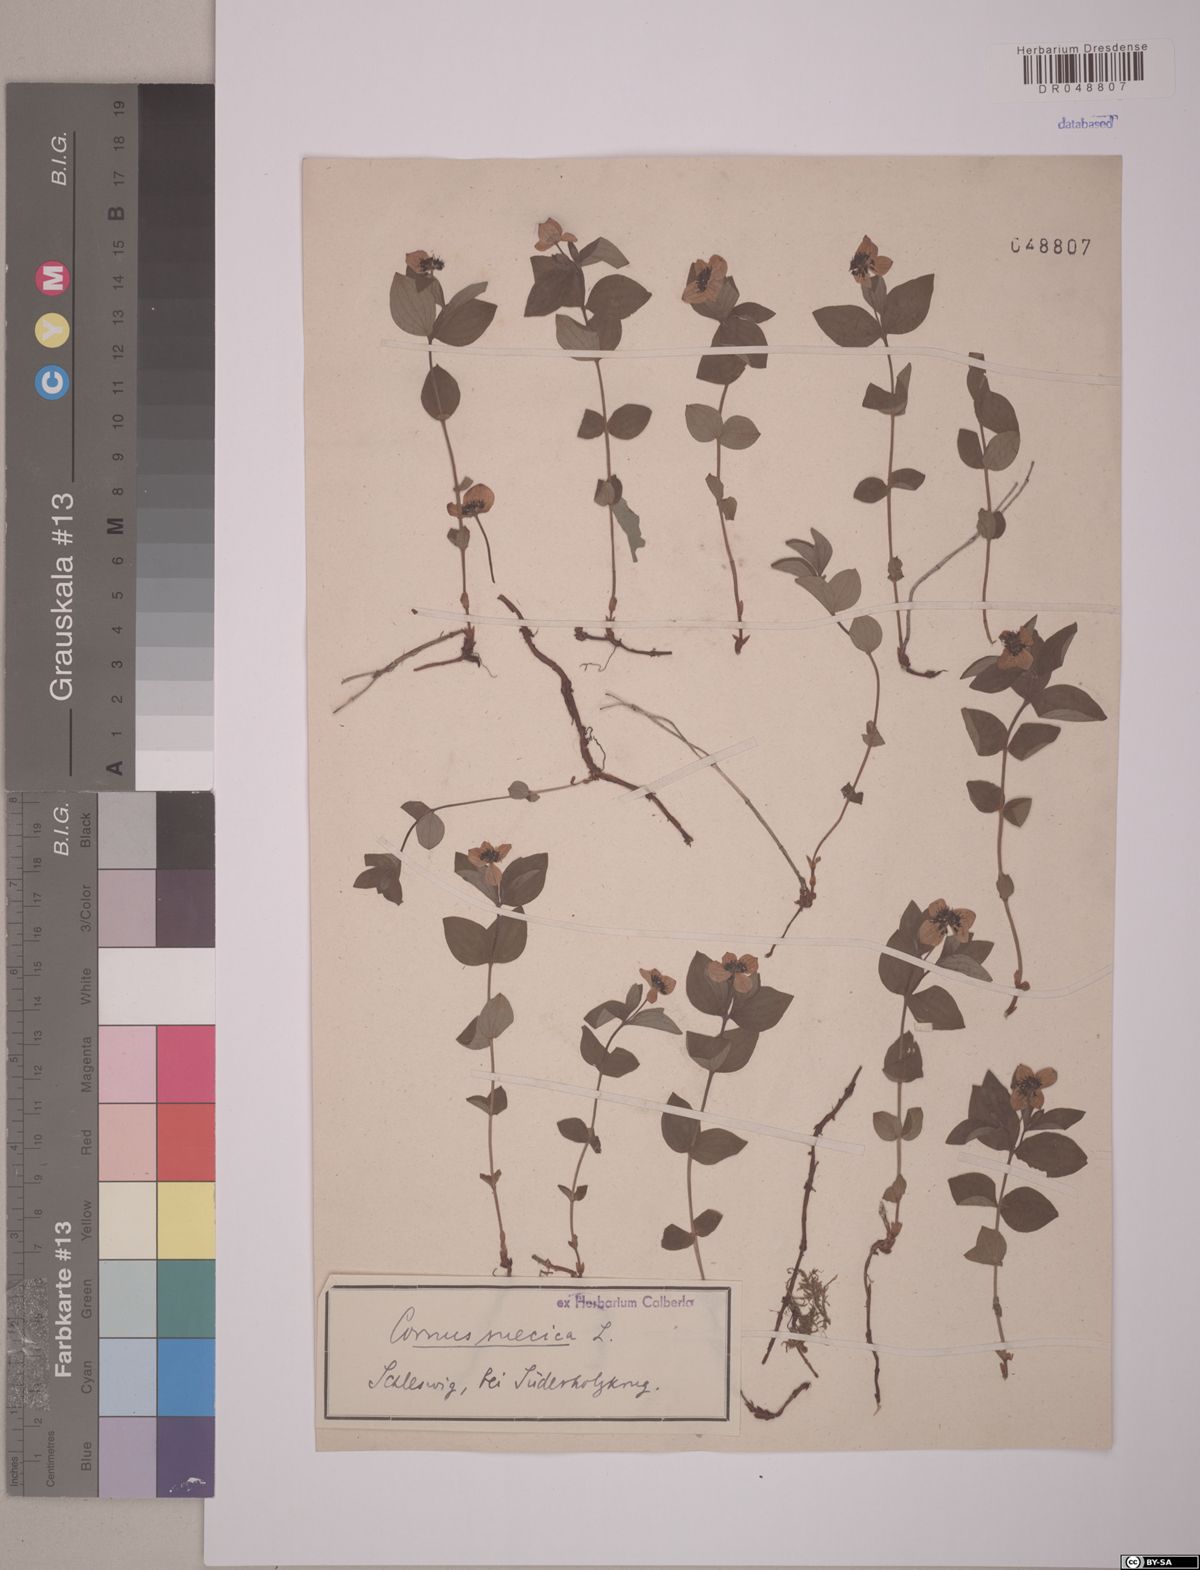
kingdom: Plantae
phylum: Tracheophyta
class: Magnoliopsida
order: Cornales
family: Cornaceae
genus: Cornus
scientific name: Cornus suecica
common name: Dwarf cornel
